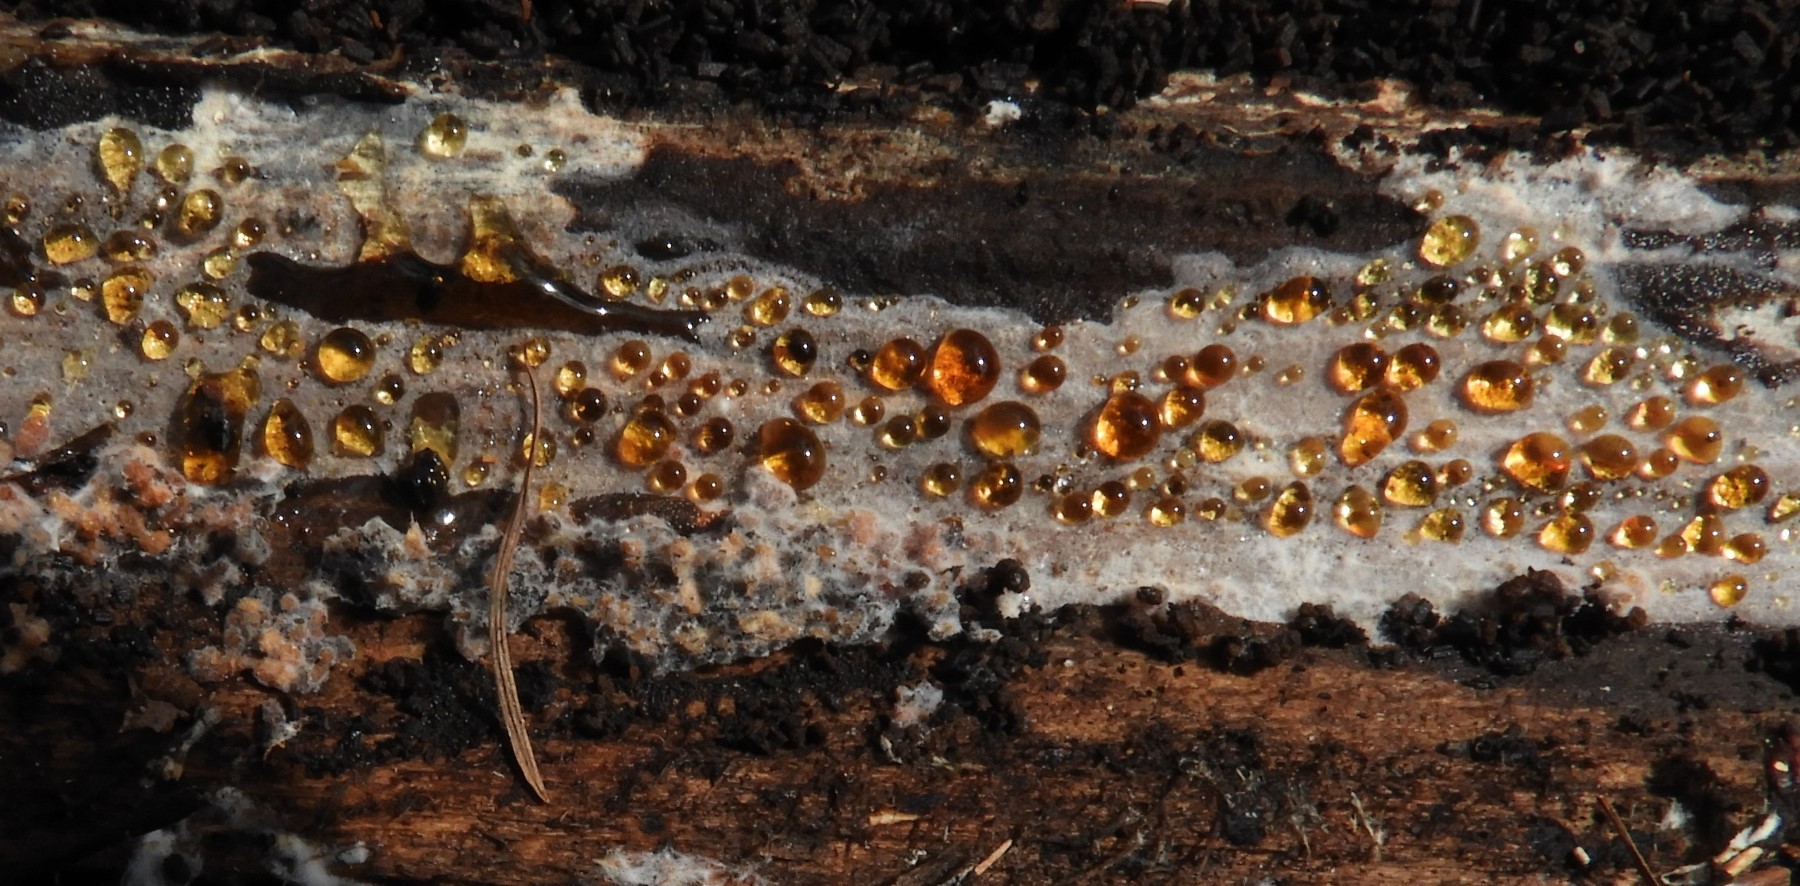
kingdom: Fungi
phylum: Basidiomycota
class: Agaricomycetes
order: Corticiales
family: Corticiaceae
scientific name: Corticiaceae
